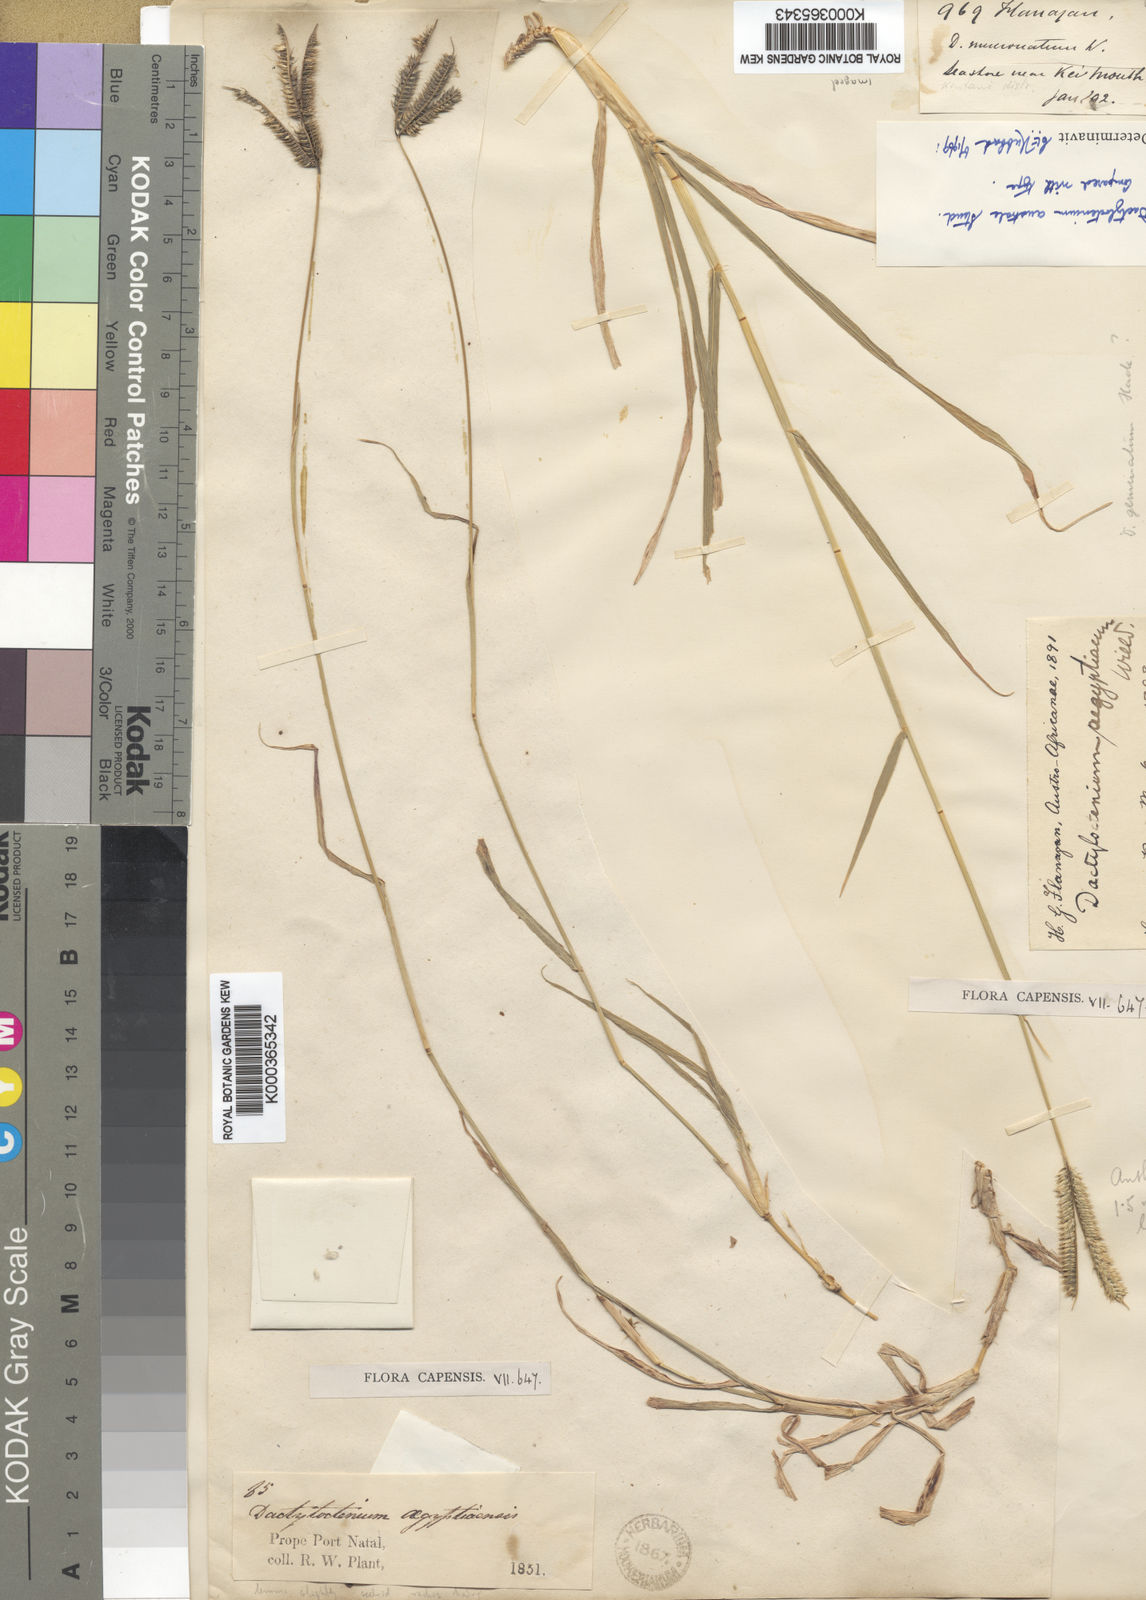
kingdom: Plantae
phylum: Tracheophyta
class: Liliopsida
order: Poales
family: Poaceae
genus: Dactyloctenium
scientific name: Dactyloctenium australe
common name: Durban grass
